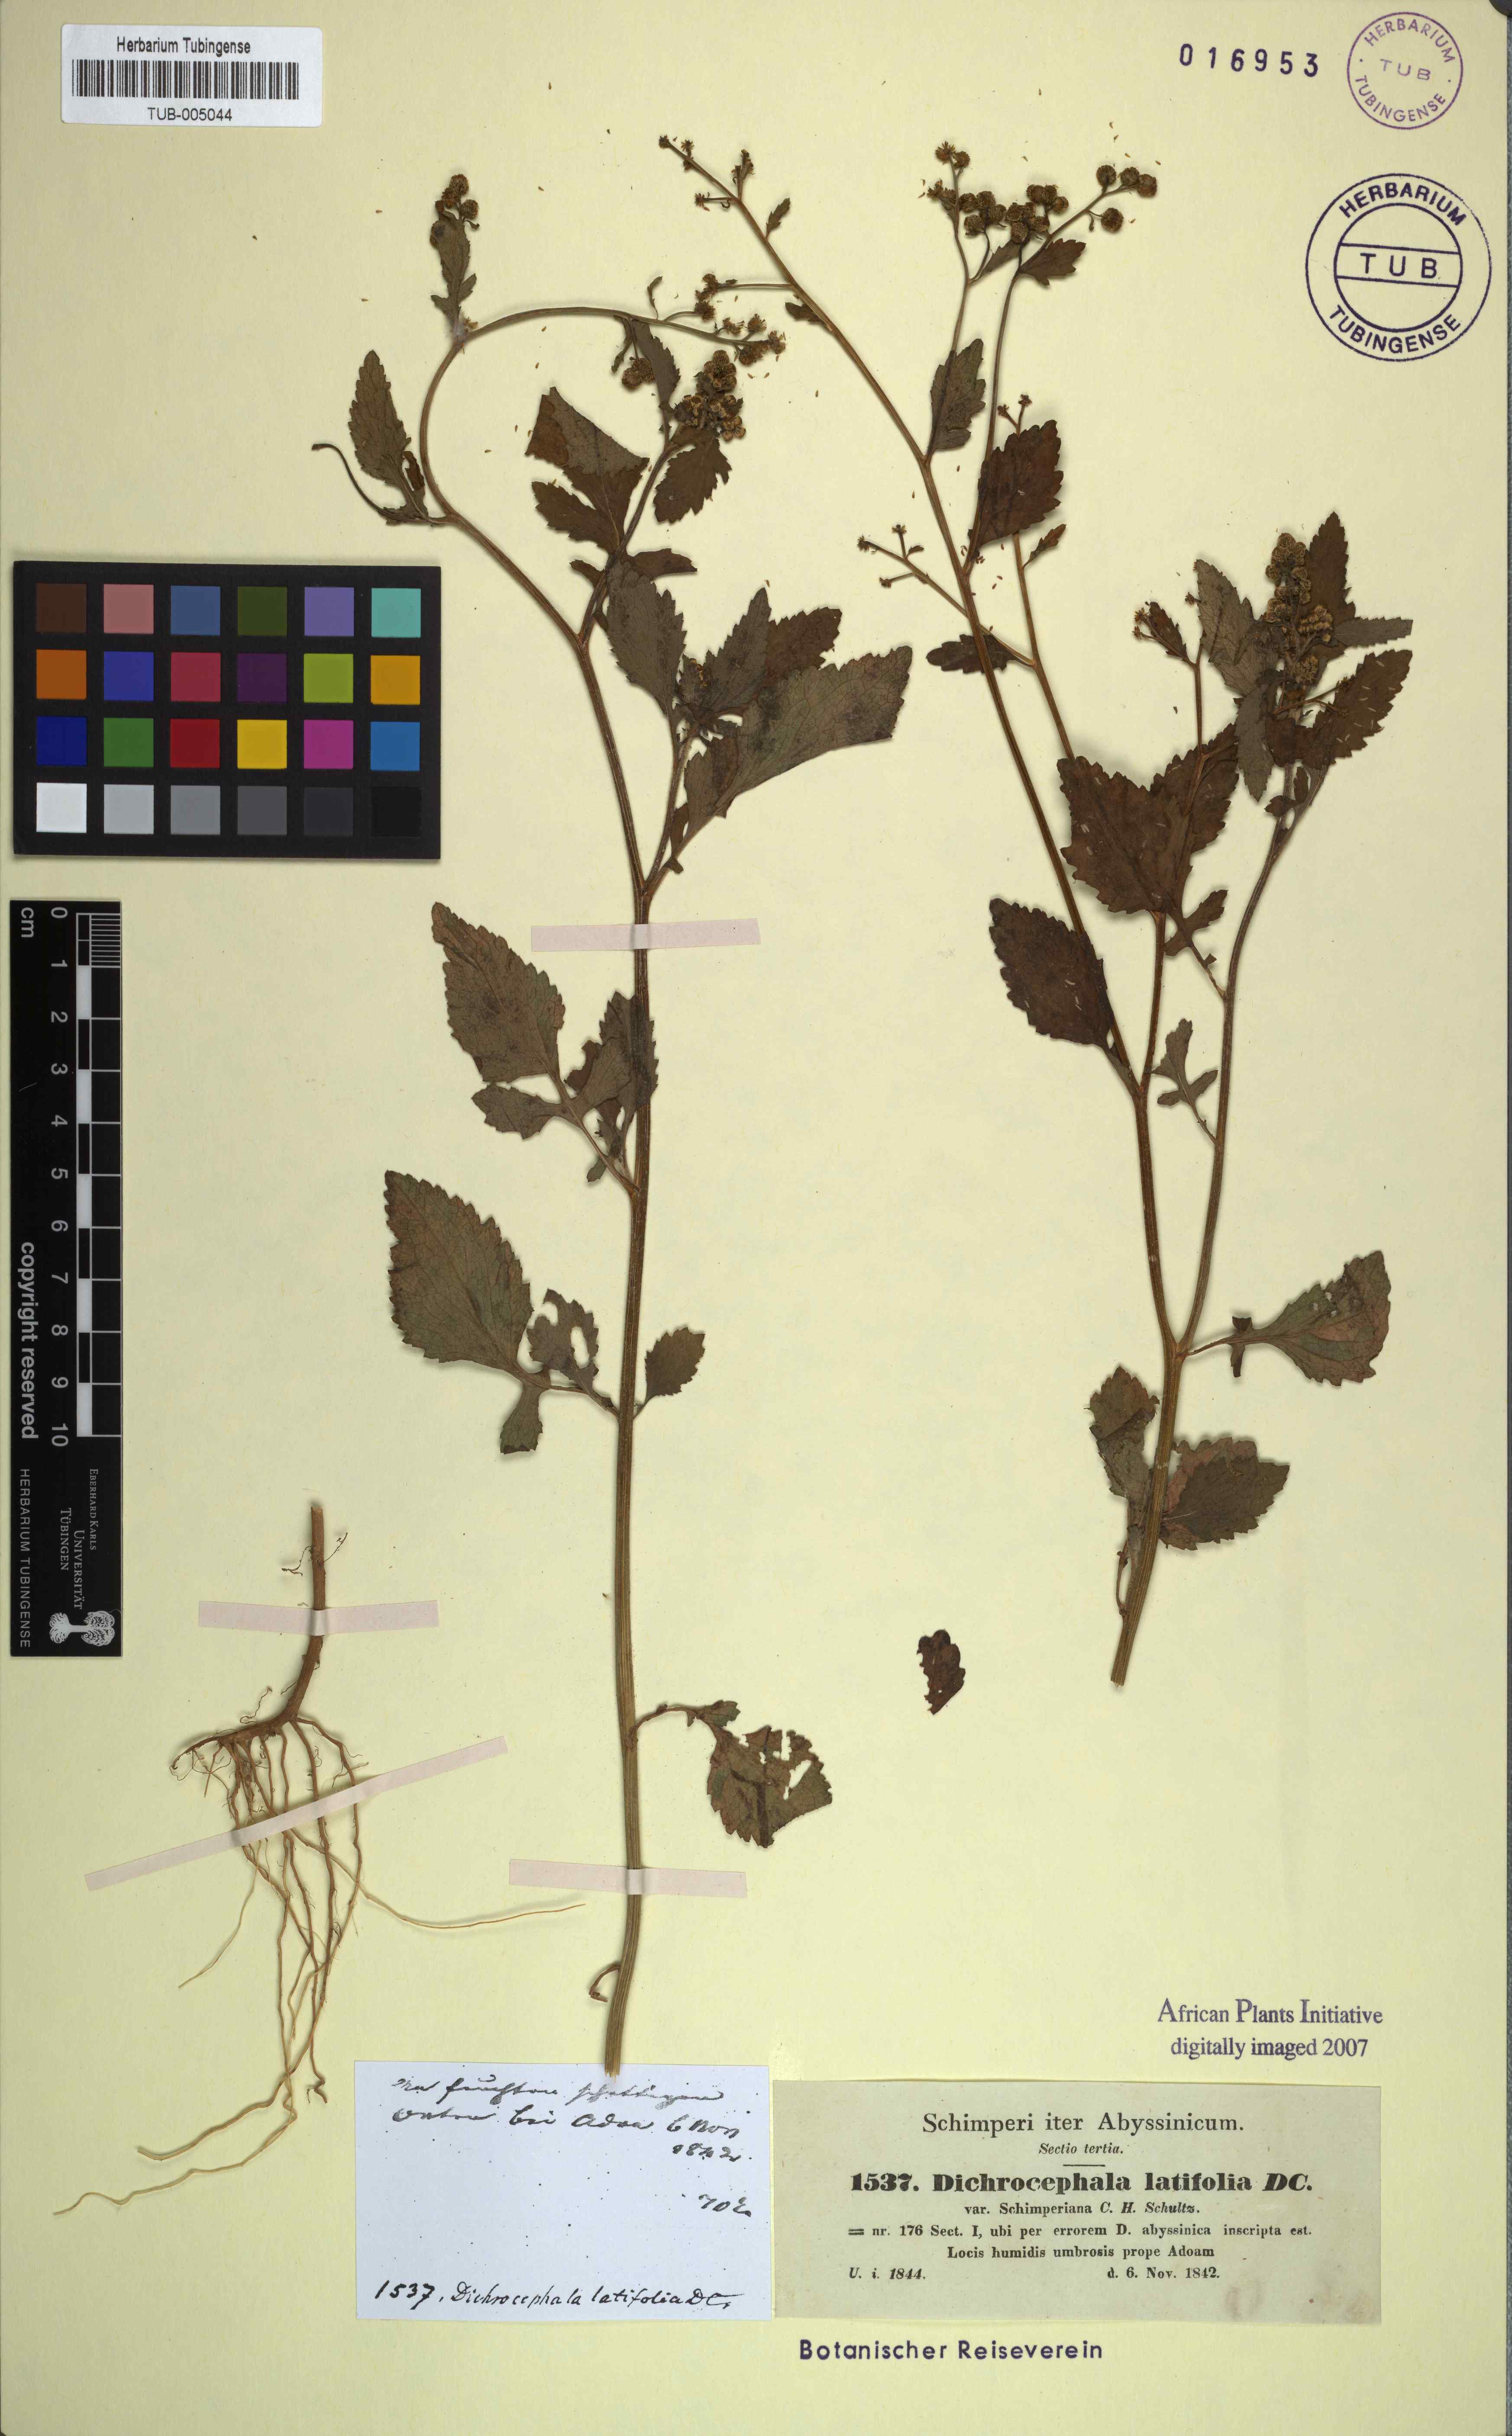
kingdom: Plantae
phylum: Tracheophyta
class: Magnoliopsida
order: Asterales
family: Asteraceae
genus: Dichrocephala
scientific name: Dichrocephala integrifolia
